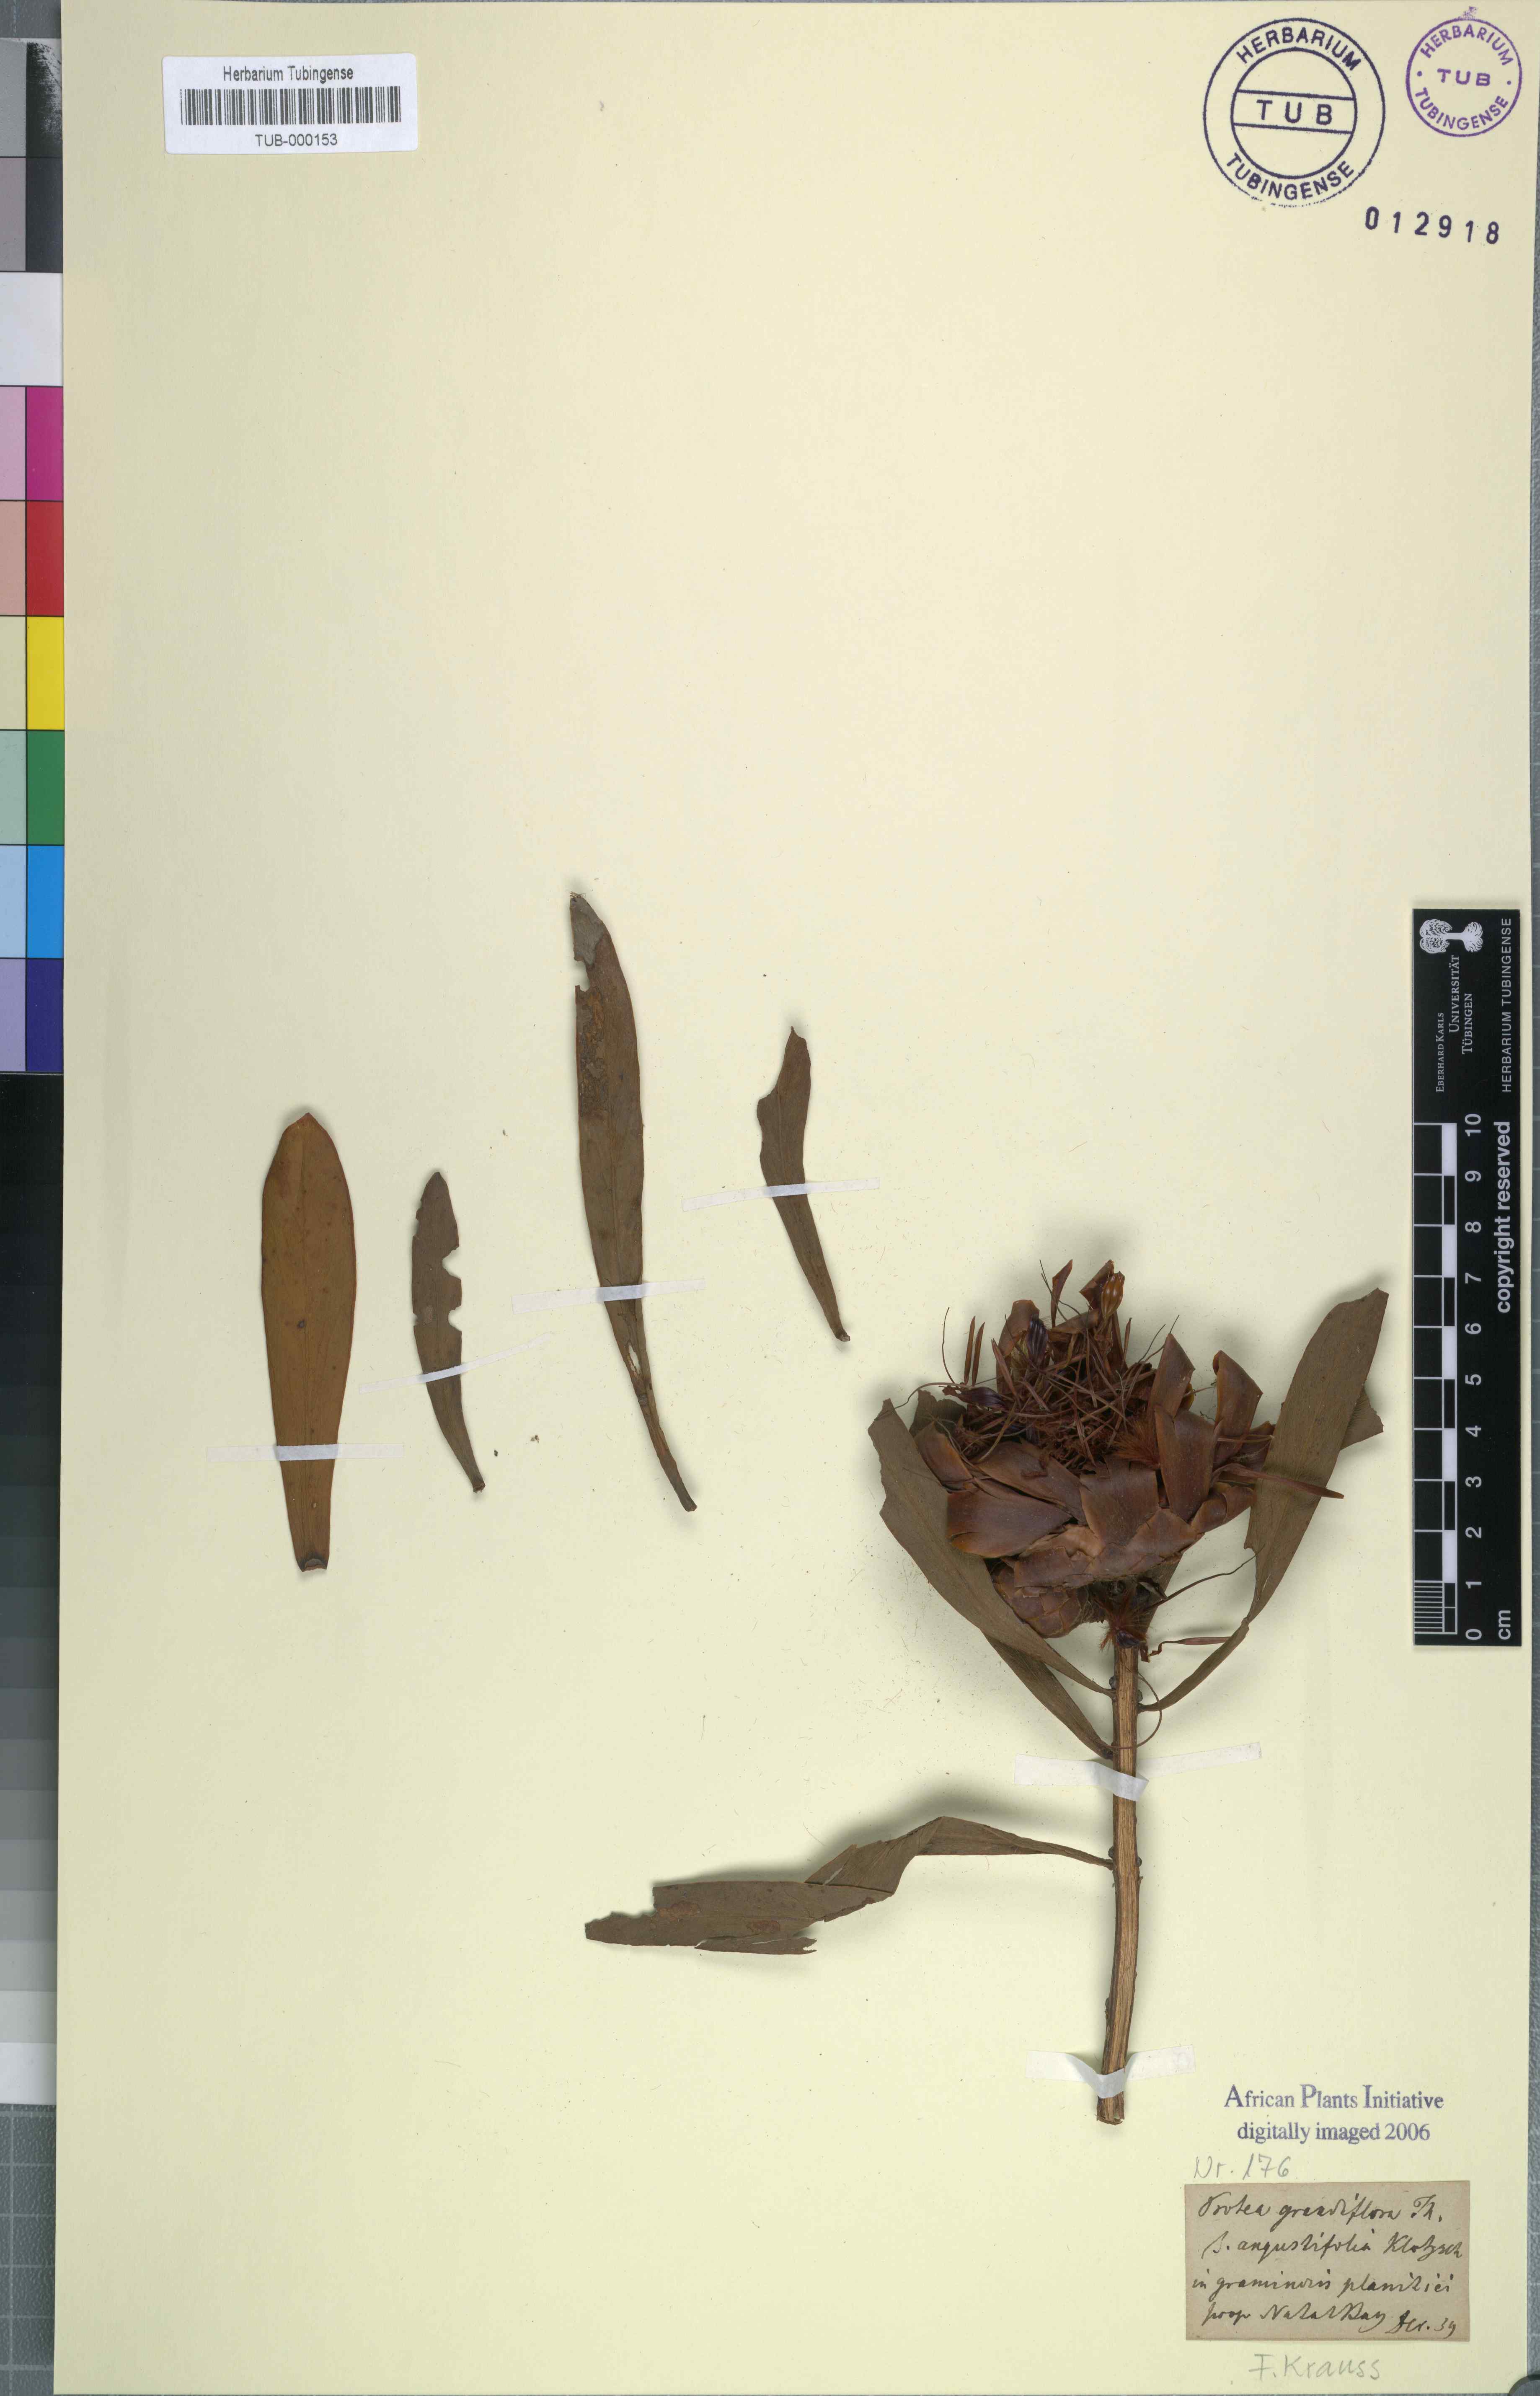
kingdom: Plantae
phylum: Tracheophyta
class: Magnoliopsida
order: Proteales
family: Proteaceae
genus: Protea
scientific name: Protea nitida
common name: Tree protea
